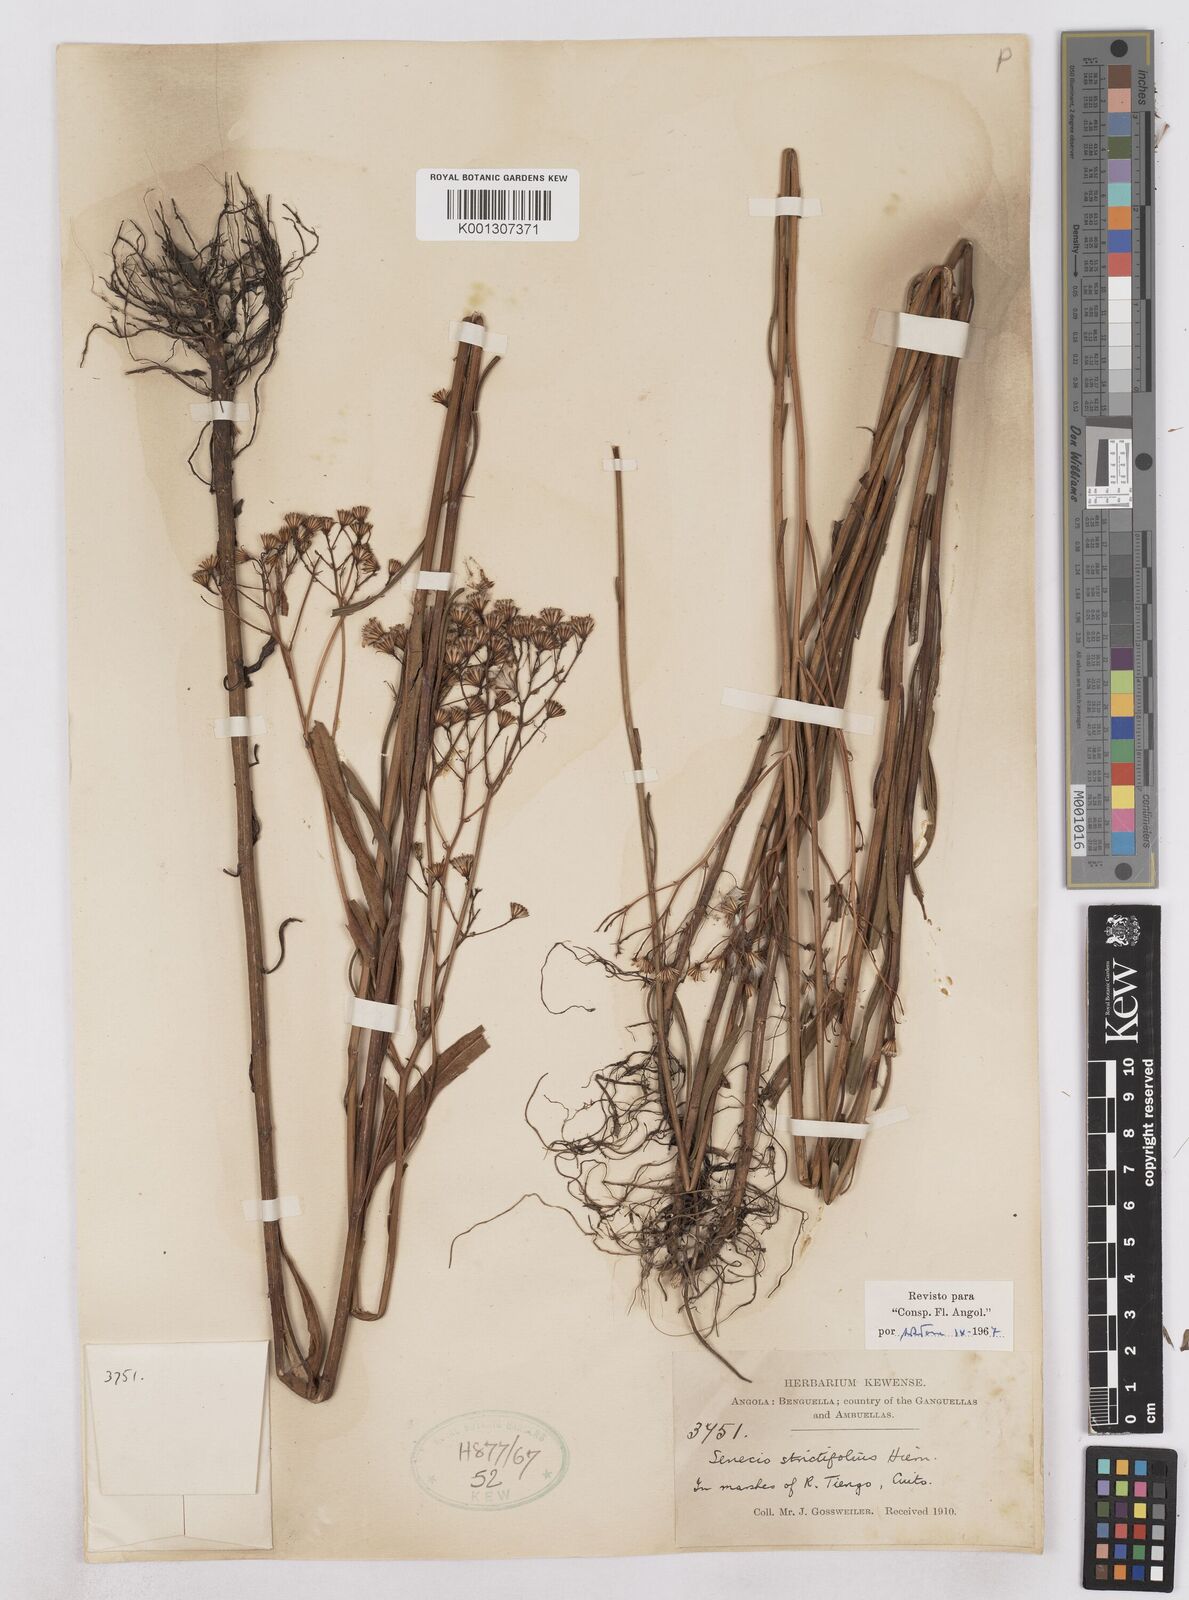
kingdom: Plantae
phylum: Tracheophyta
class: Magnoliopsida
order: Asterales
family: Asteraceae
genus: Senecio
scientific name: Senecio strictifolius
